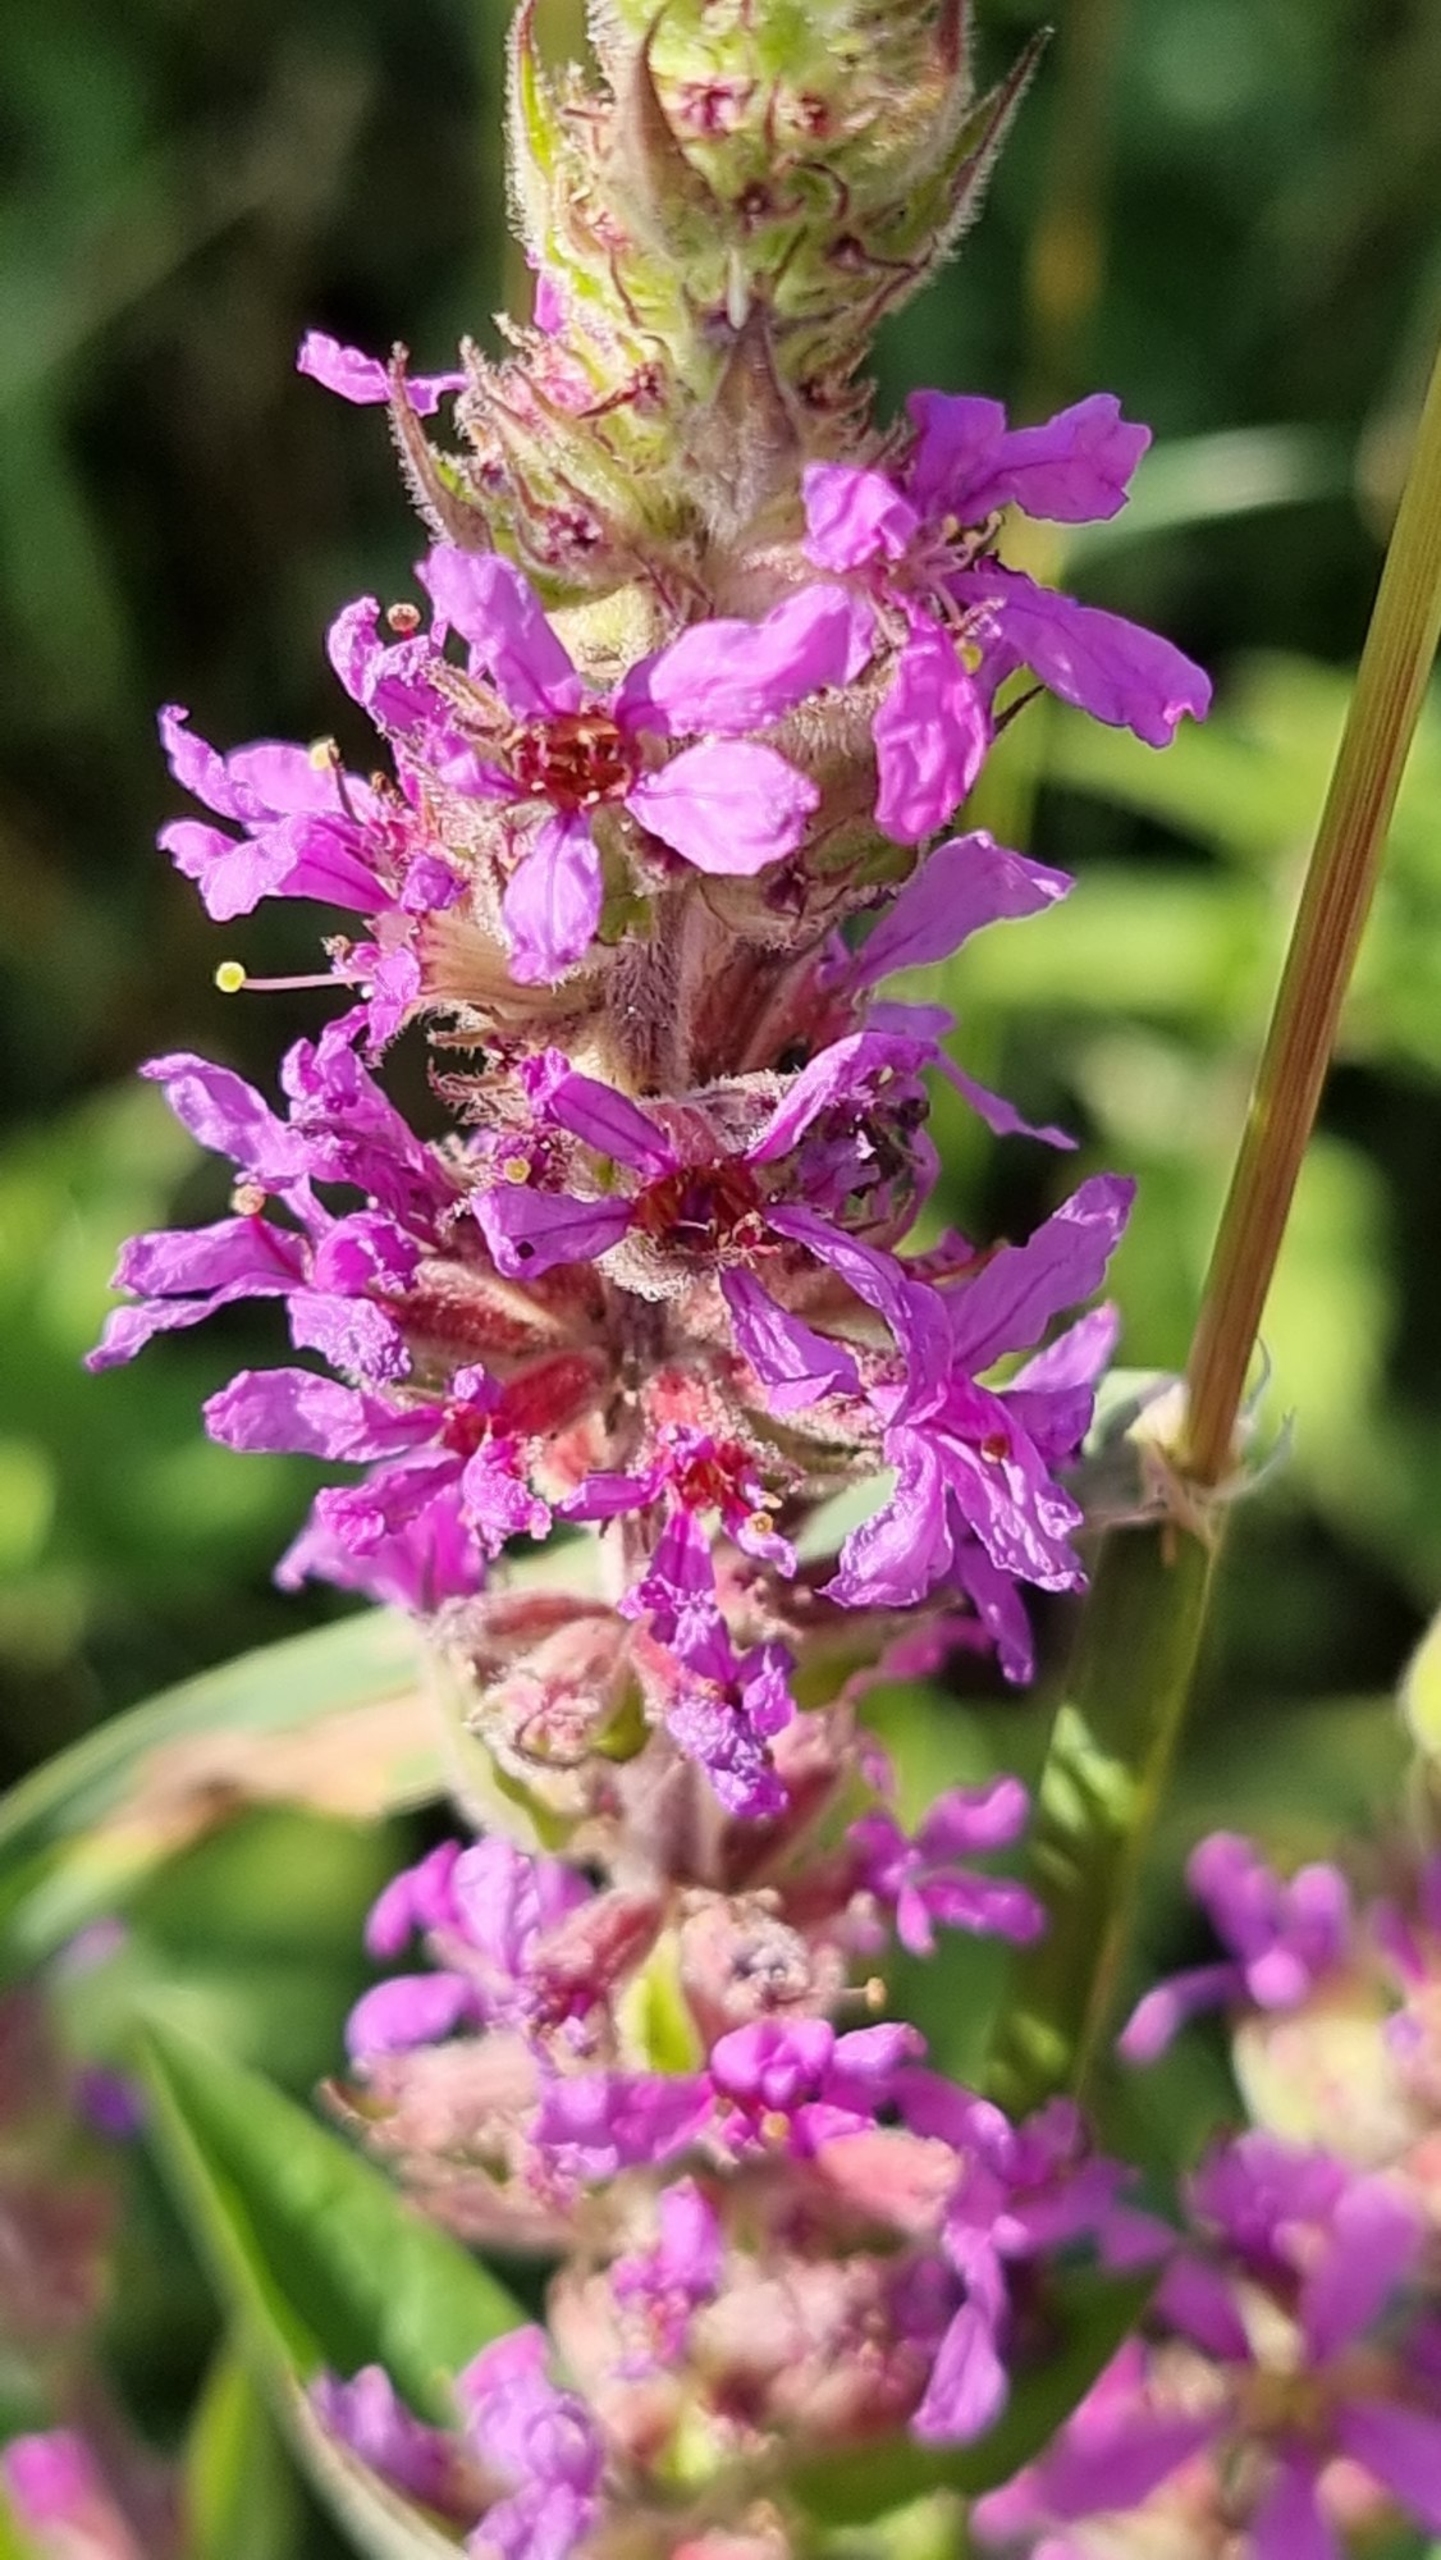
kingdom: Plantae
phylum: Tracheophyta
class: Magnoliopsida
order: Myrtales
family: Lythraceae
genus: Lythrum
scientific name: Lythrum salicaria
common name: Kattehale
